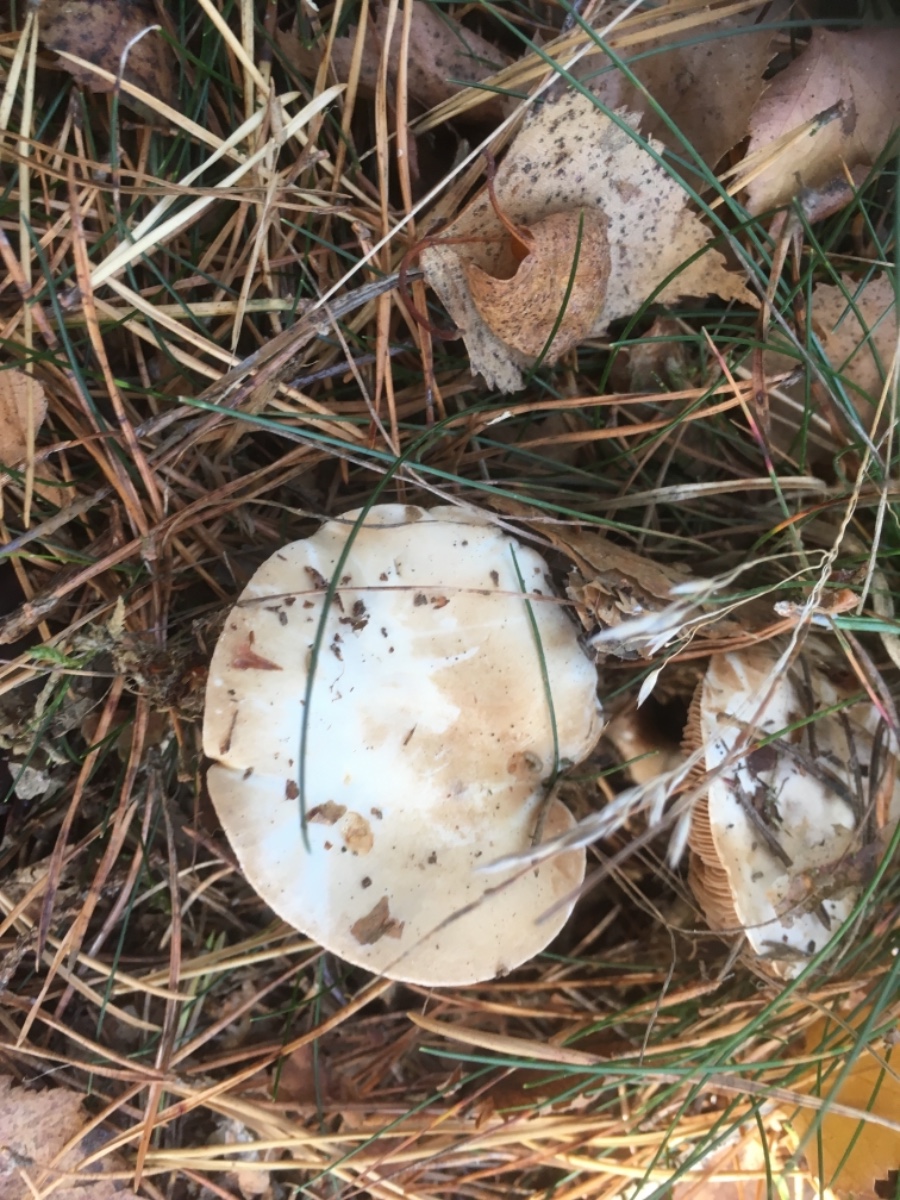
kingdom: Fungi
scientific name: Fungi
